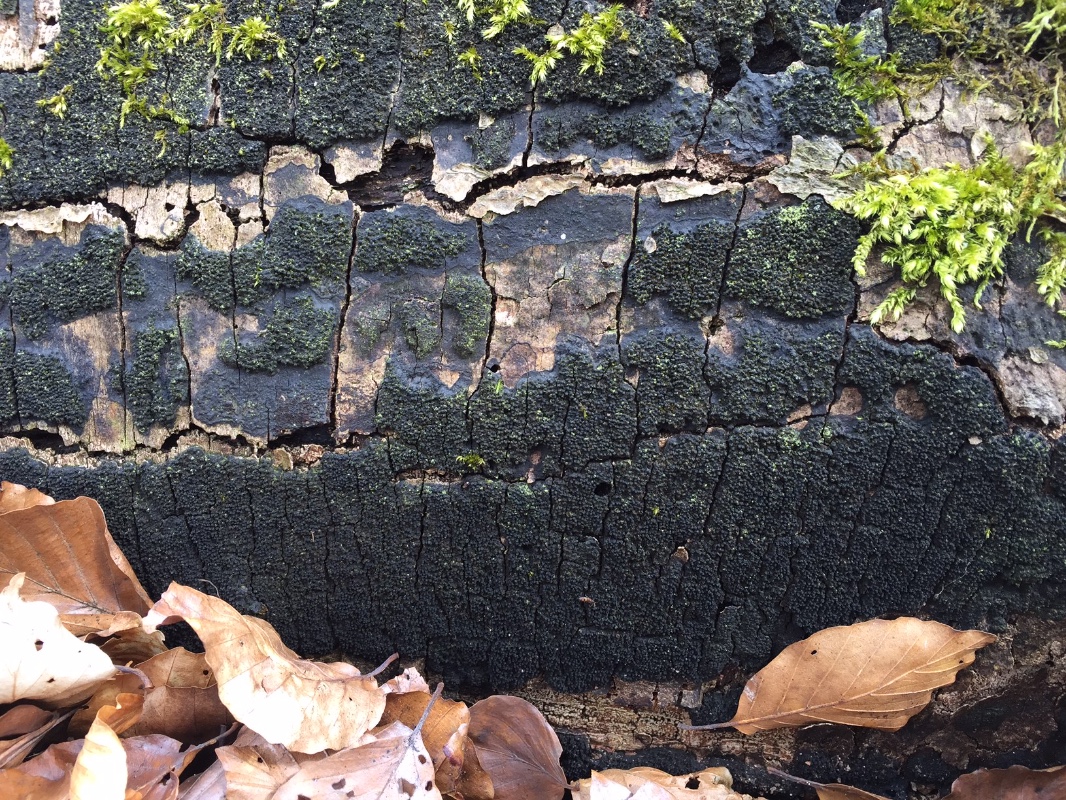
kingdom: Fungi
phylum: Ascomycota
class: Sordariomycetes
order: Xylariales
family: Diatrypaceae
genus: Eutypa
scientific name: Eutypa spinosa
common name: grov kulskorpe
